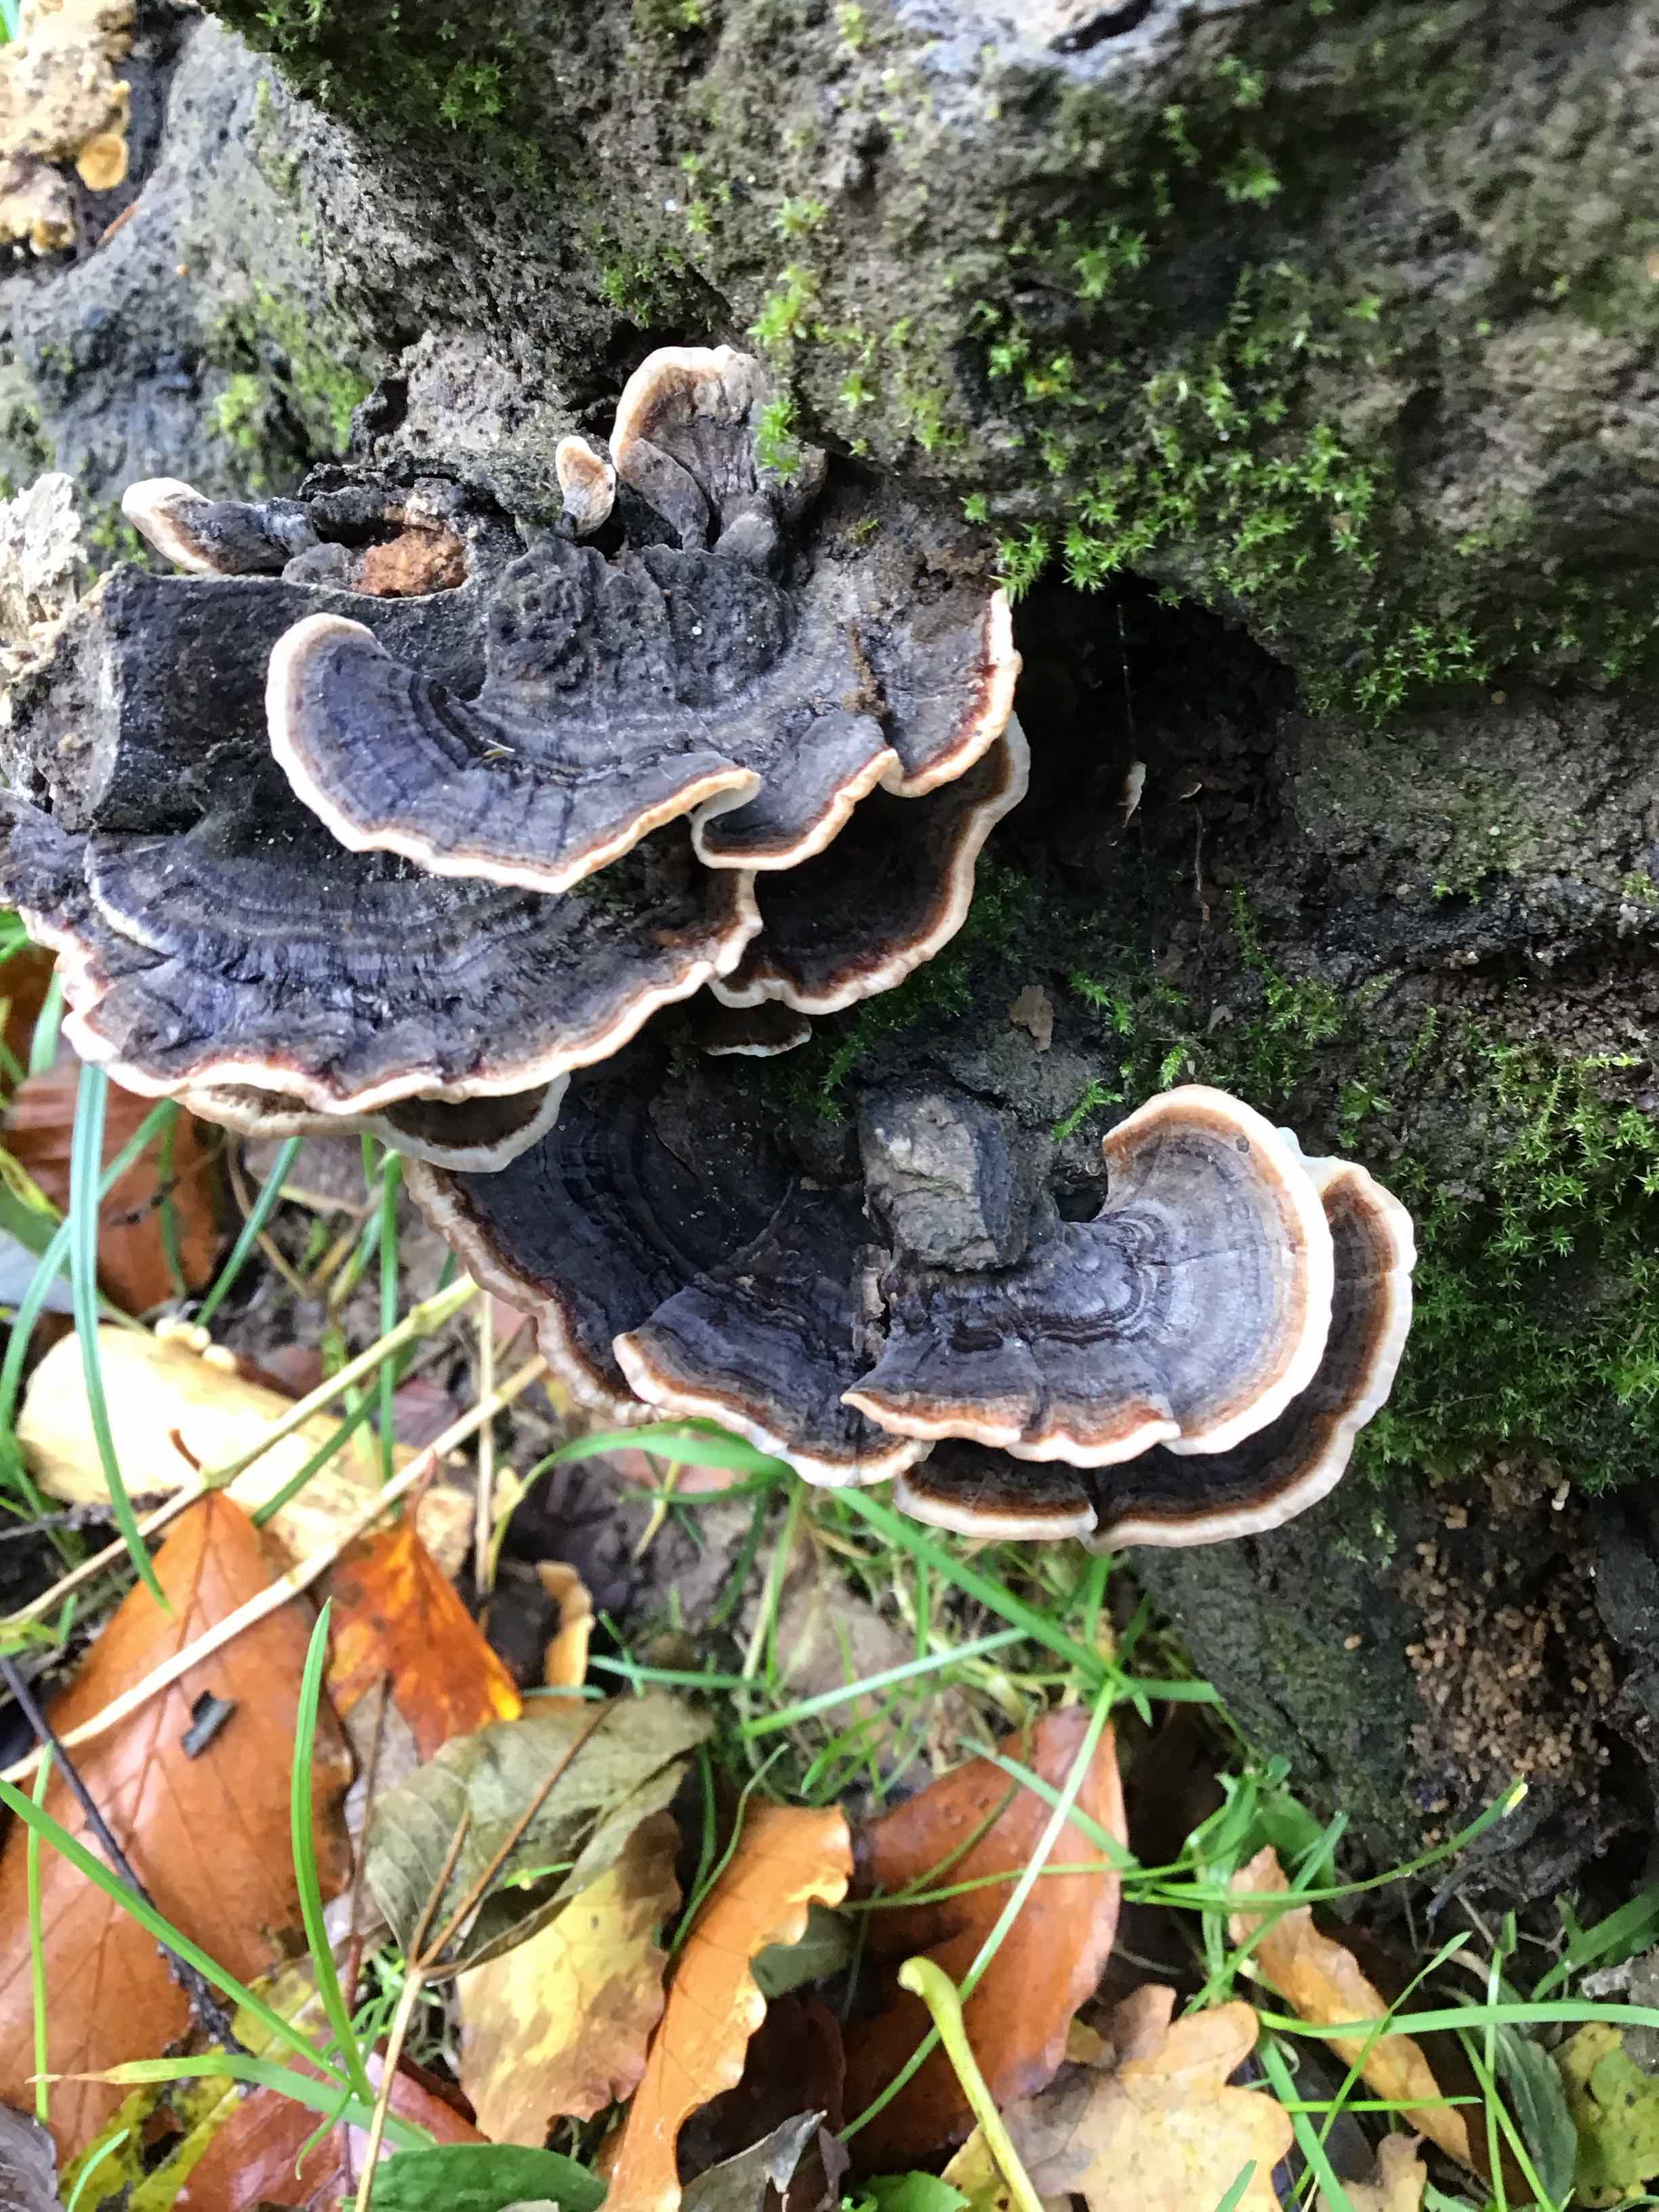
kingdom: Fungi
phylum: Basidiomycota
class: Agaricomycetes
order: Polyporales
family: Polyporaceae
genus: Trametes
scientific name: Trametes versicolor
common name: broget læderporesvamp
